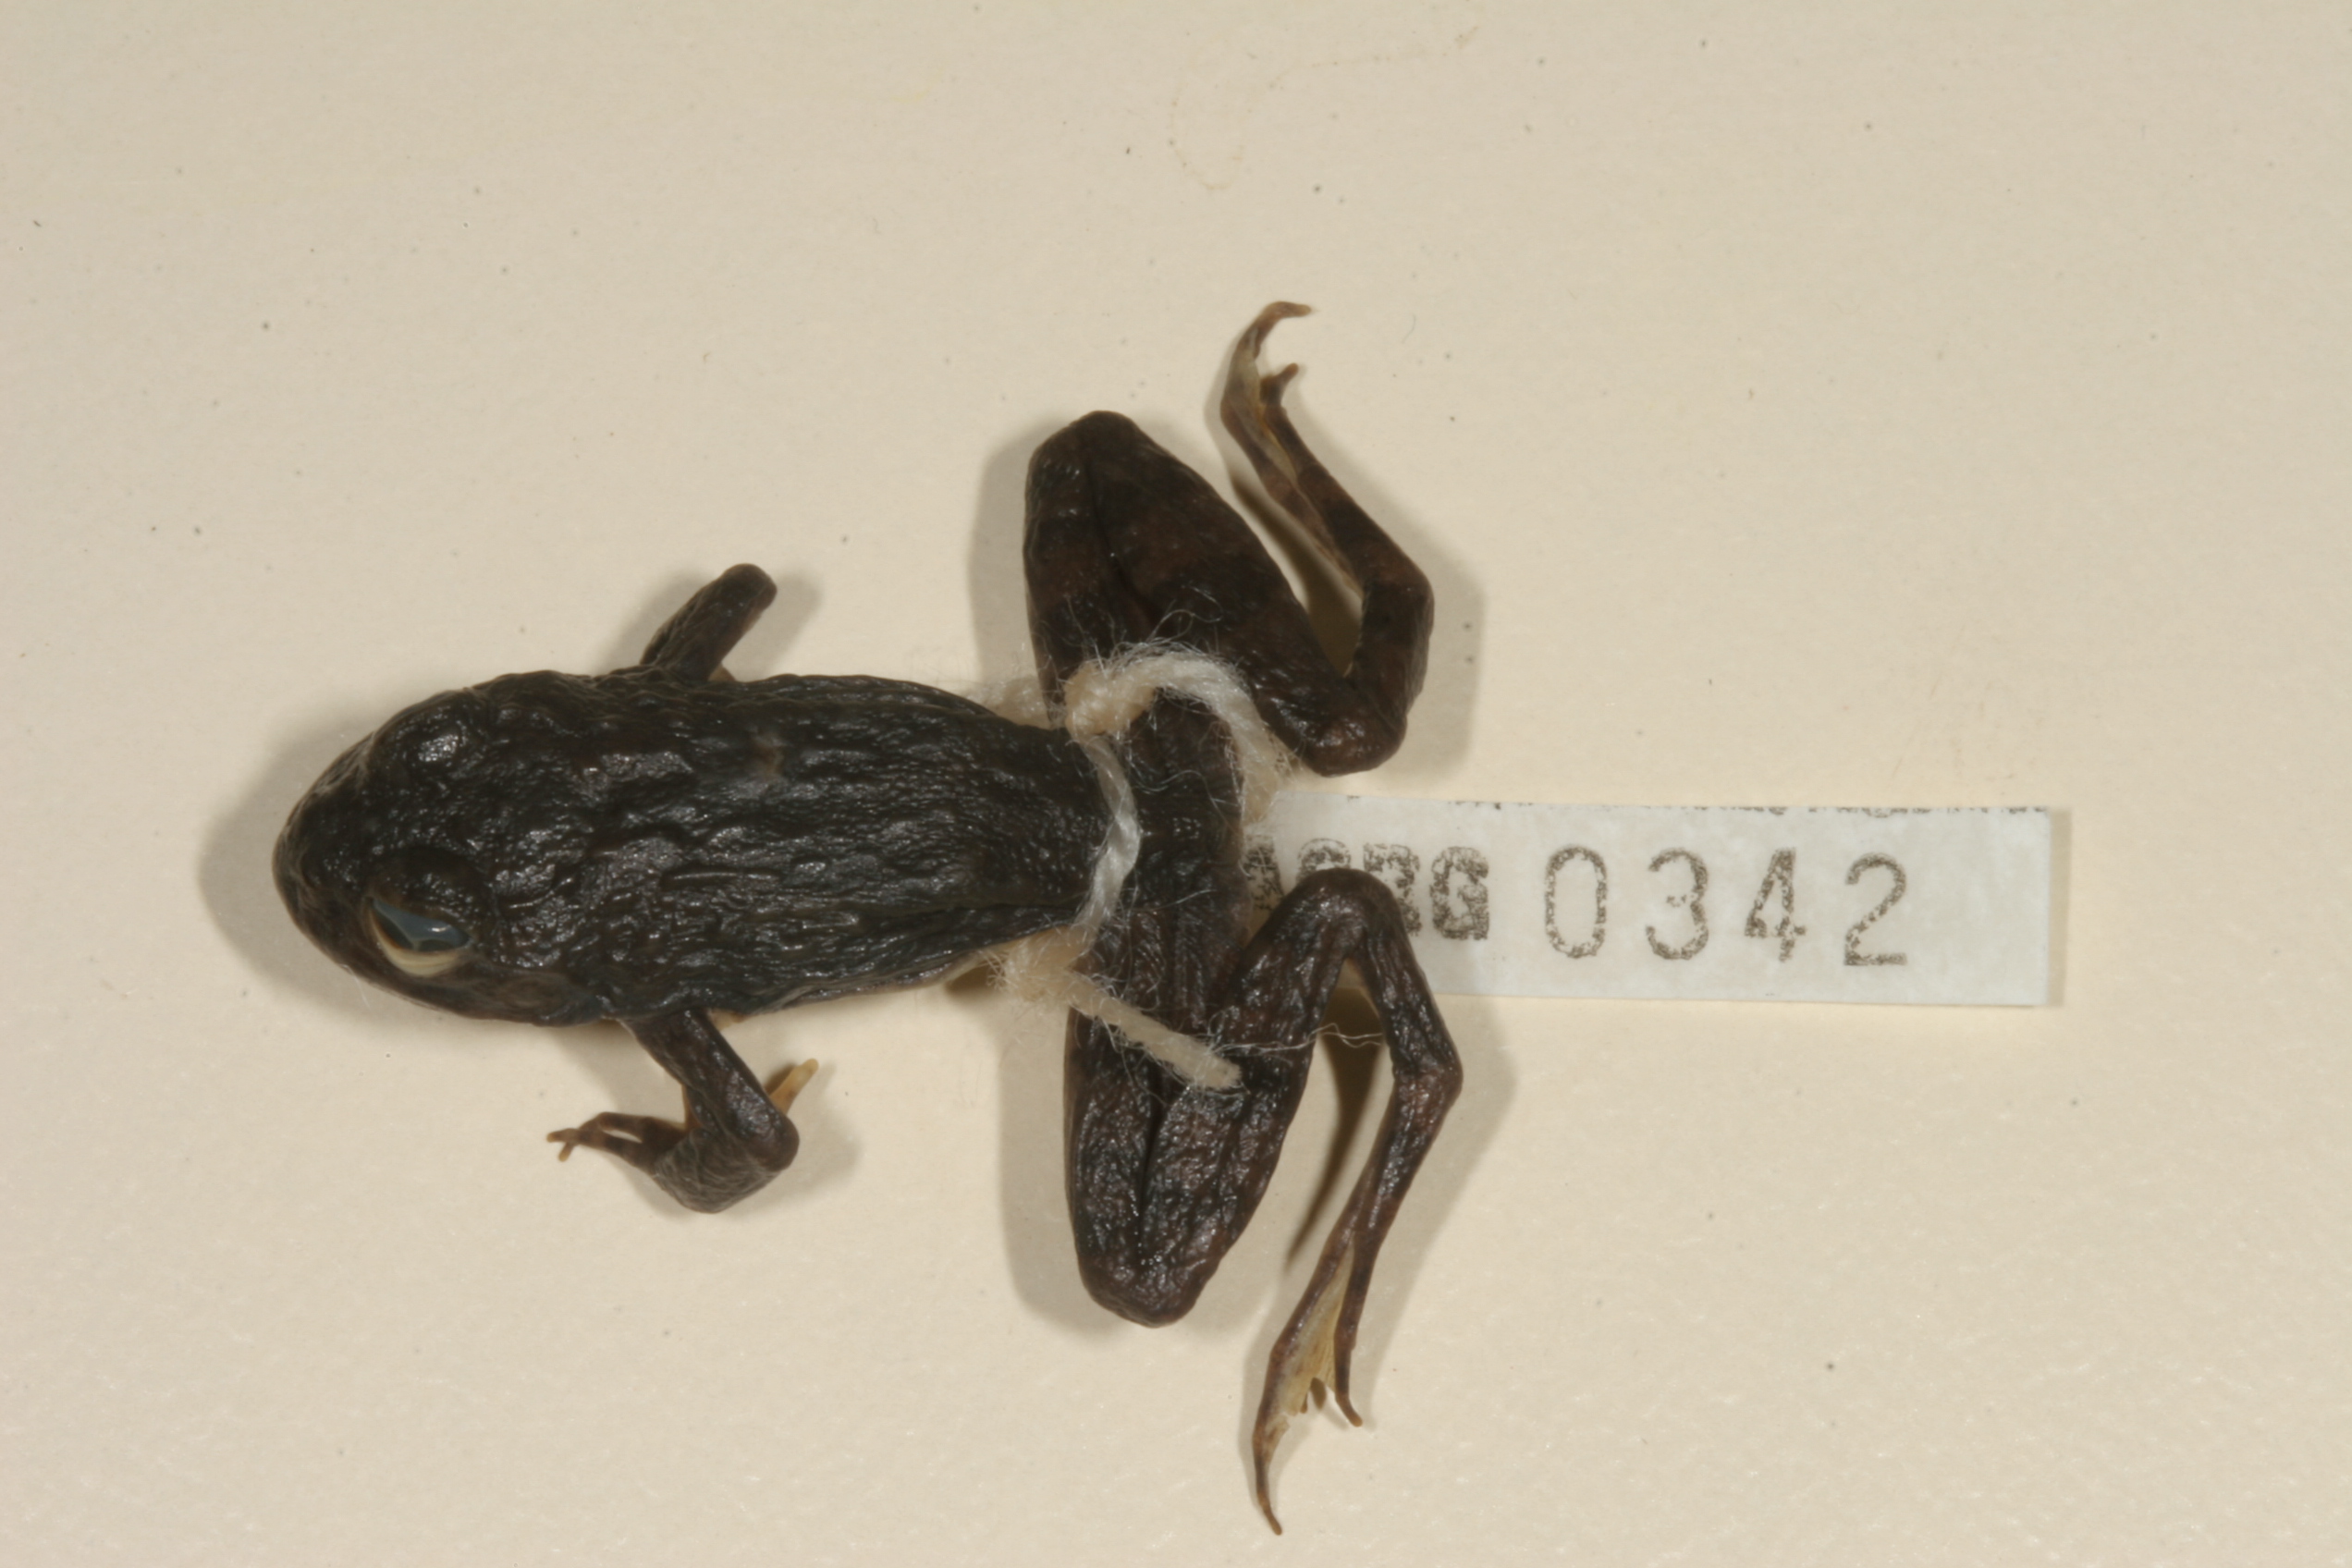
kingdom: Animalia
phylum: Chordata
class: Amphibia
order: Anura
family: Pyxicephalidae
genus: Amietia
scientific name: Amietia vertebralis
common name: Drakensberg stream frog
